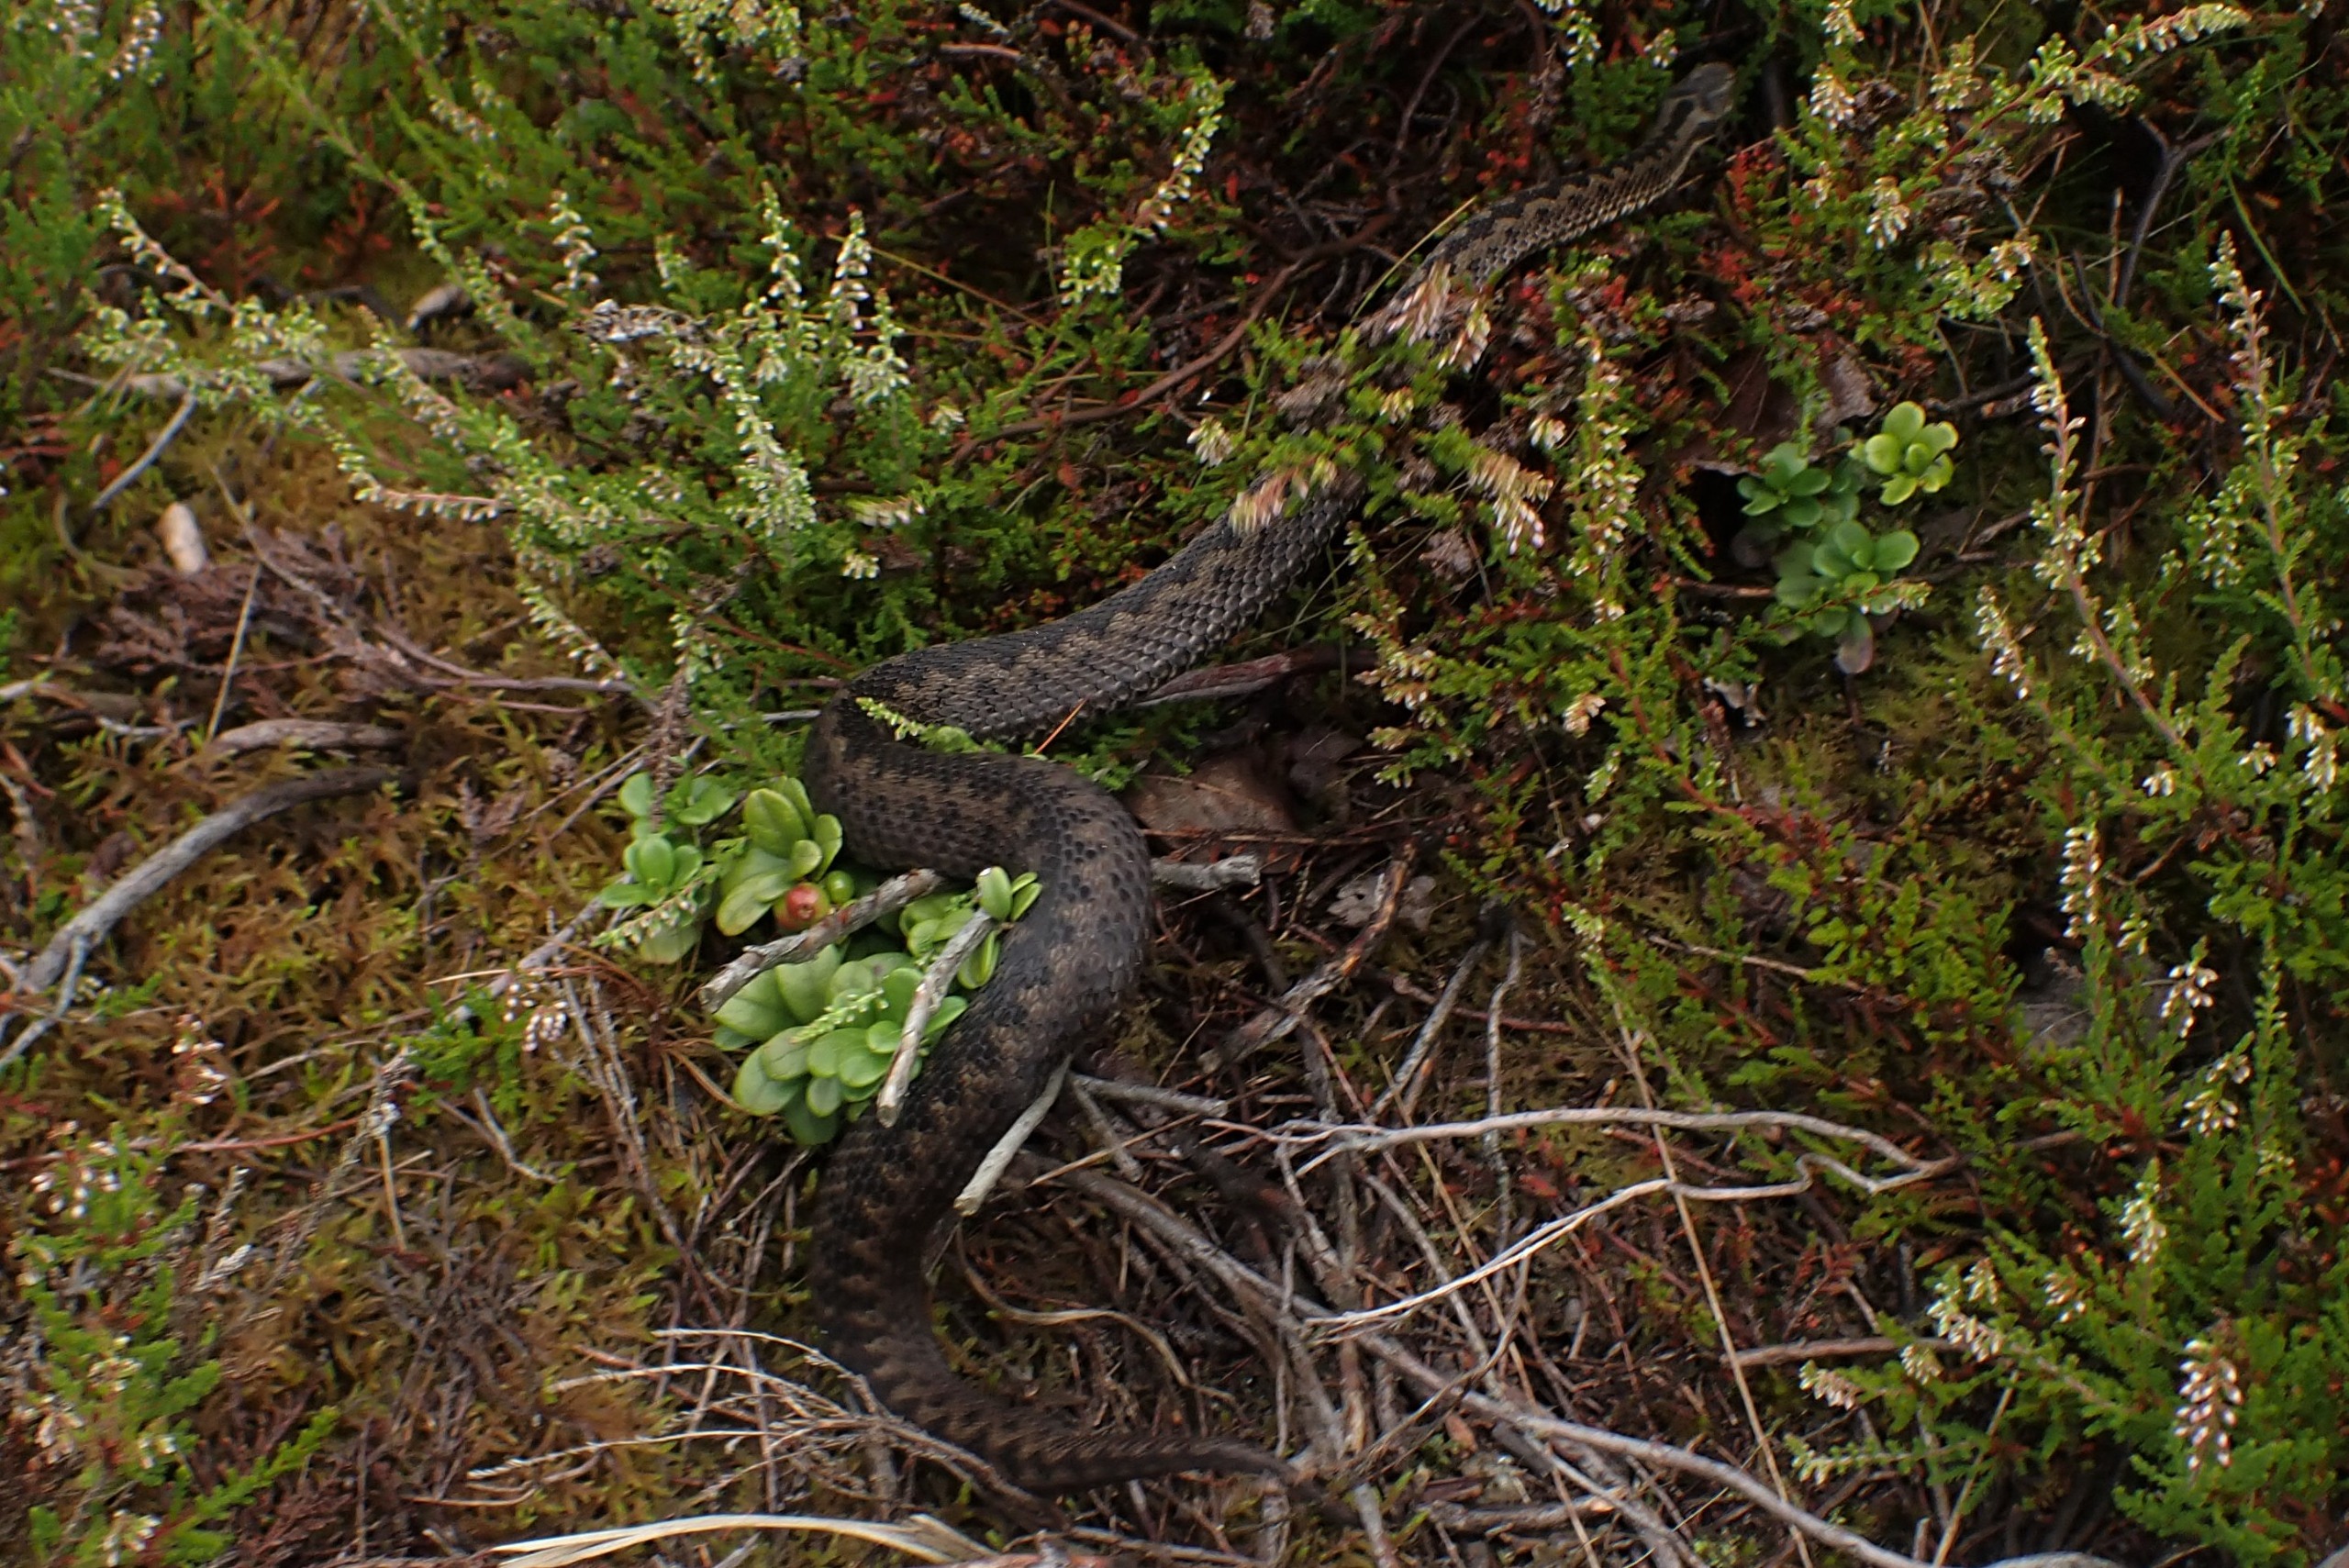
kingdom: Animalia
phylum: Chordata
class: Squamata
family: Viperidae
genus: Vipera
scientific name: Vipera berus
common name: Hugorm
